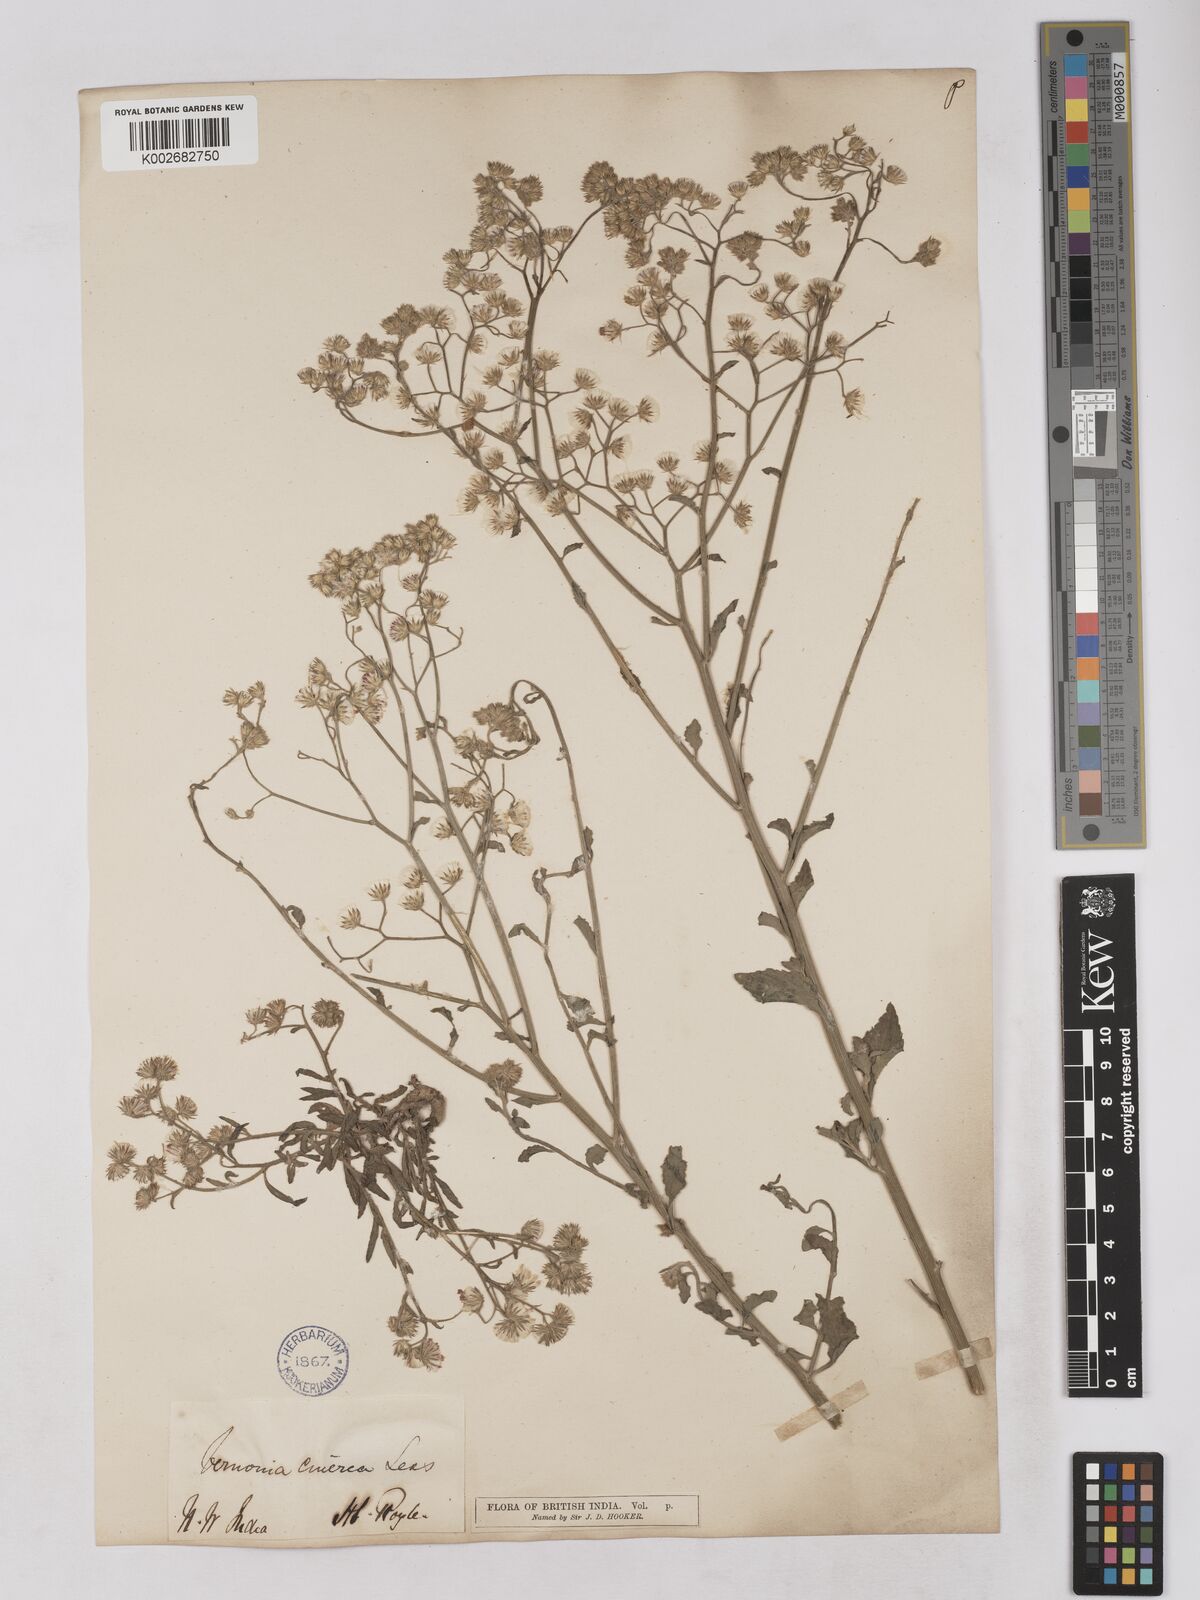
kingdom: Plantae
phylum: Tracheophyta
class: Magnoliopsida
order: Asterales
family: Asteraceae
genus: Cyanthillium
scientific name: Cyanthillium cinereum
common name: Little ironweed
